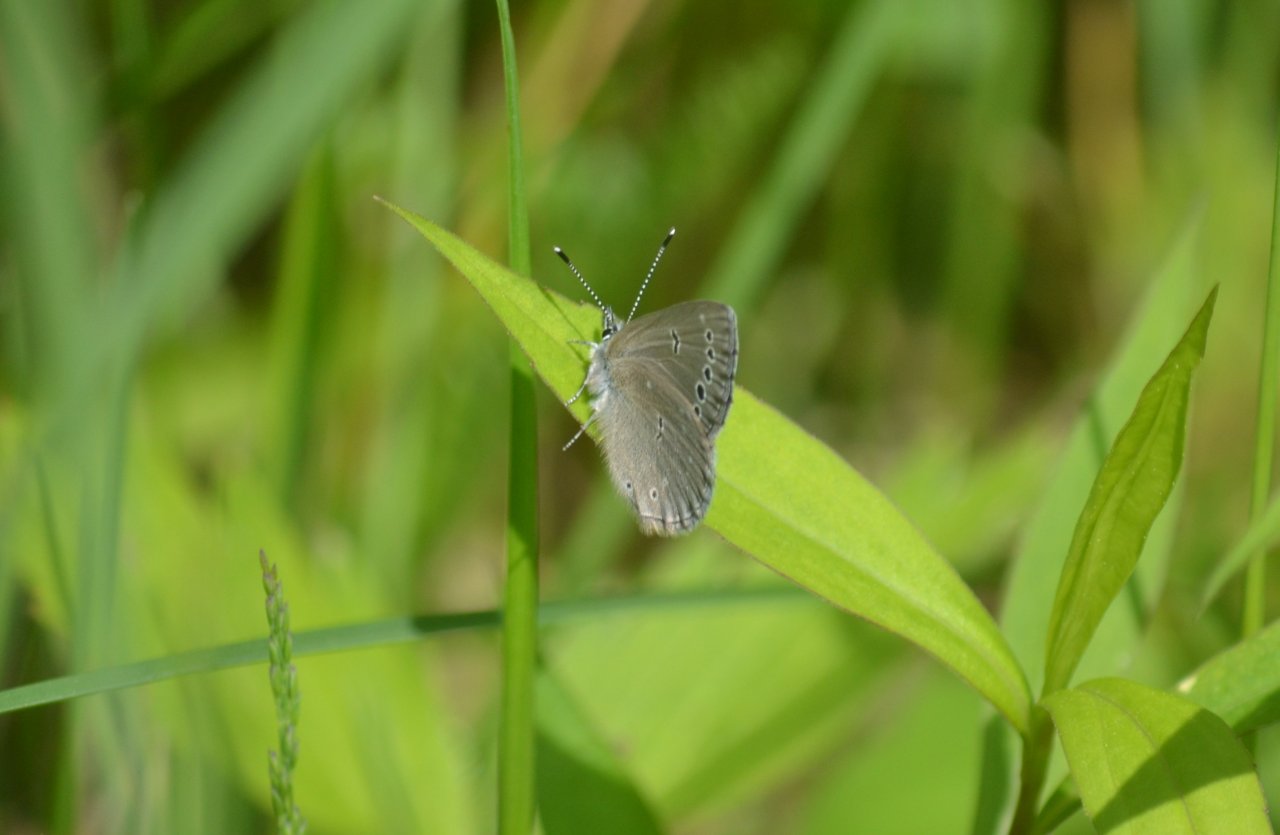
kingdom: Animalia
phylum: Arthropoda
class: Insecta
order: Lepidoptera
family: Lycaenidae
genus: Glaucopsyche
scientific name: Glaucopsyche lygdamus
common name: Silvery Blue
